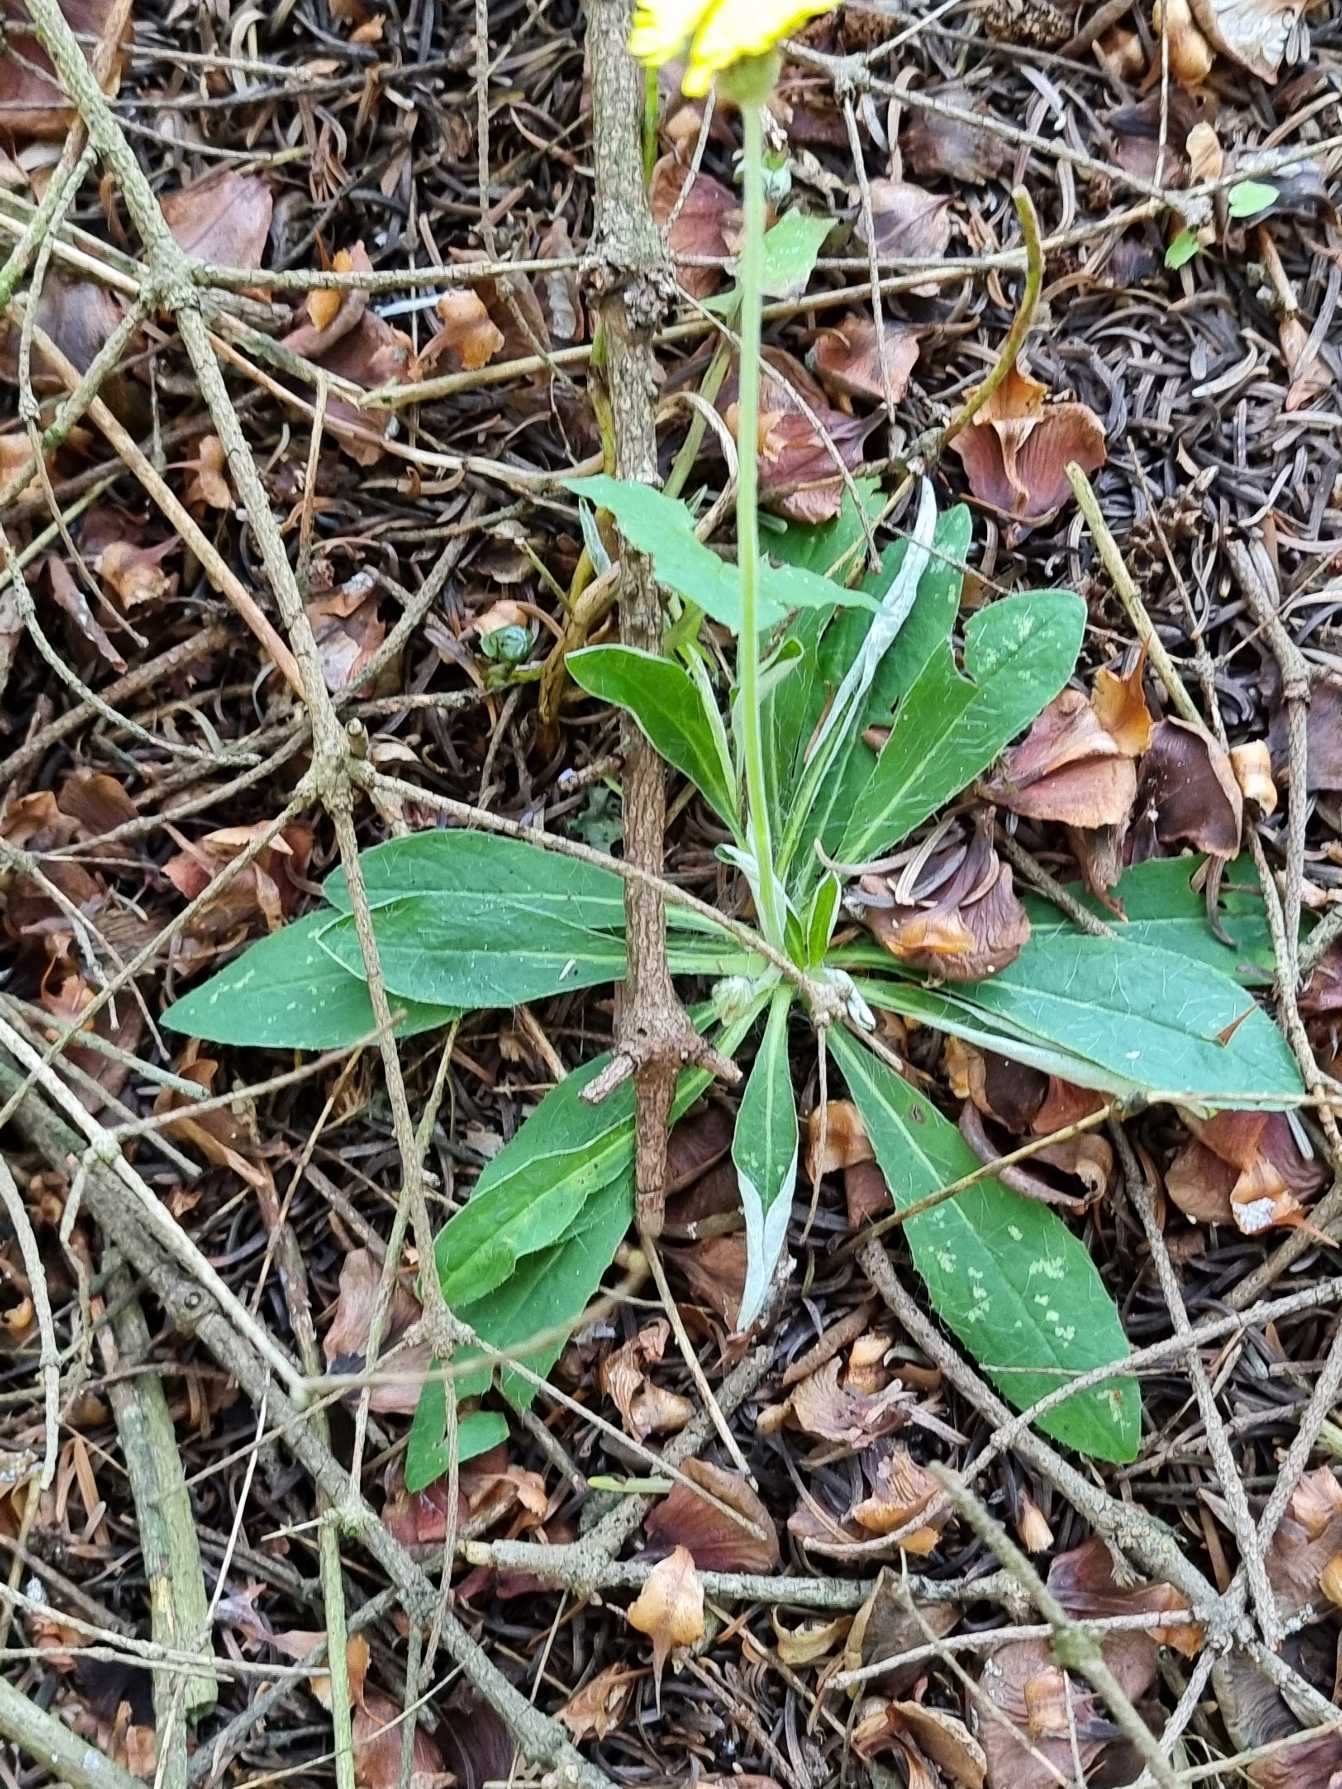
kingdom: Plantae
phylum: Tracheophyta
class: Magnoliopsida
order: Asterales
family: Asteraceae
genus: Pilosella
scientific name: Pilosella officinarum
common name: Håret høgeurt
